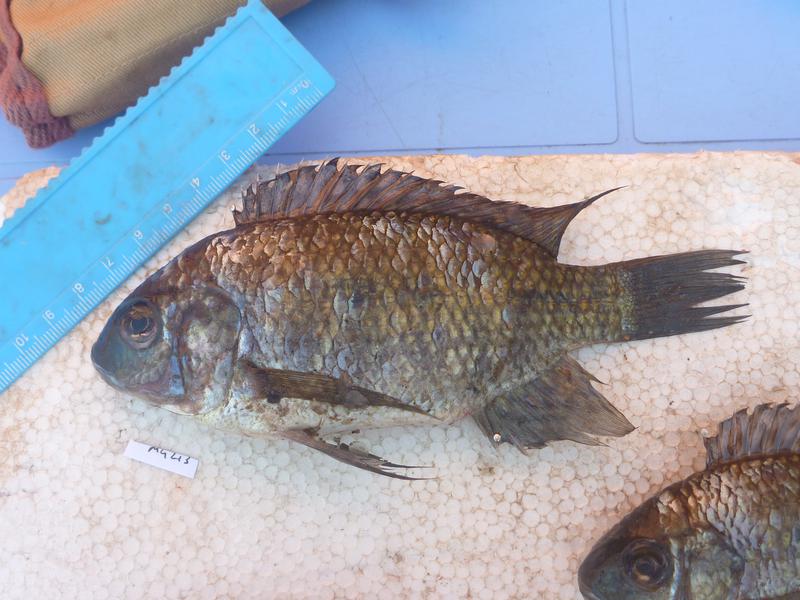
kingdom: Animalia
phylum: Chordata
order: Perciformes
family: Cichlidae
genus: Oreochromis
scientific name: Oreochromis leucostictus
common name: Blue spotted tilapia
